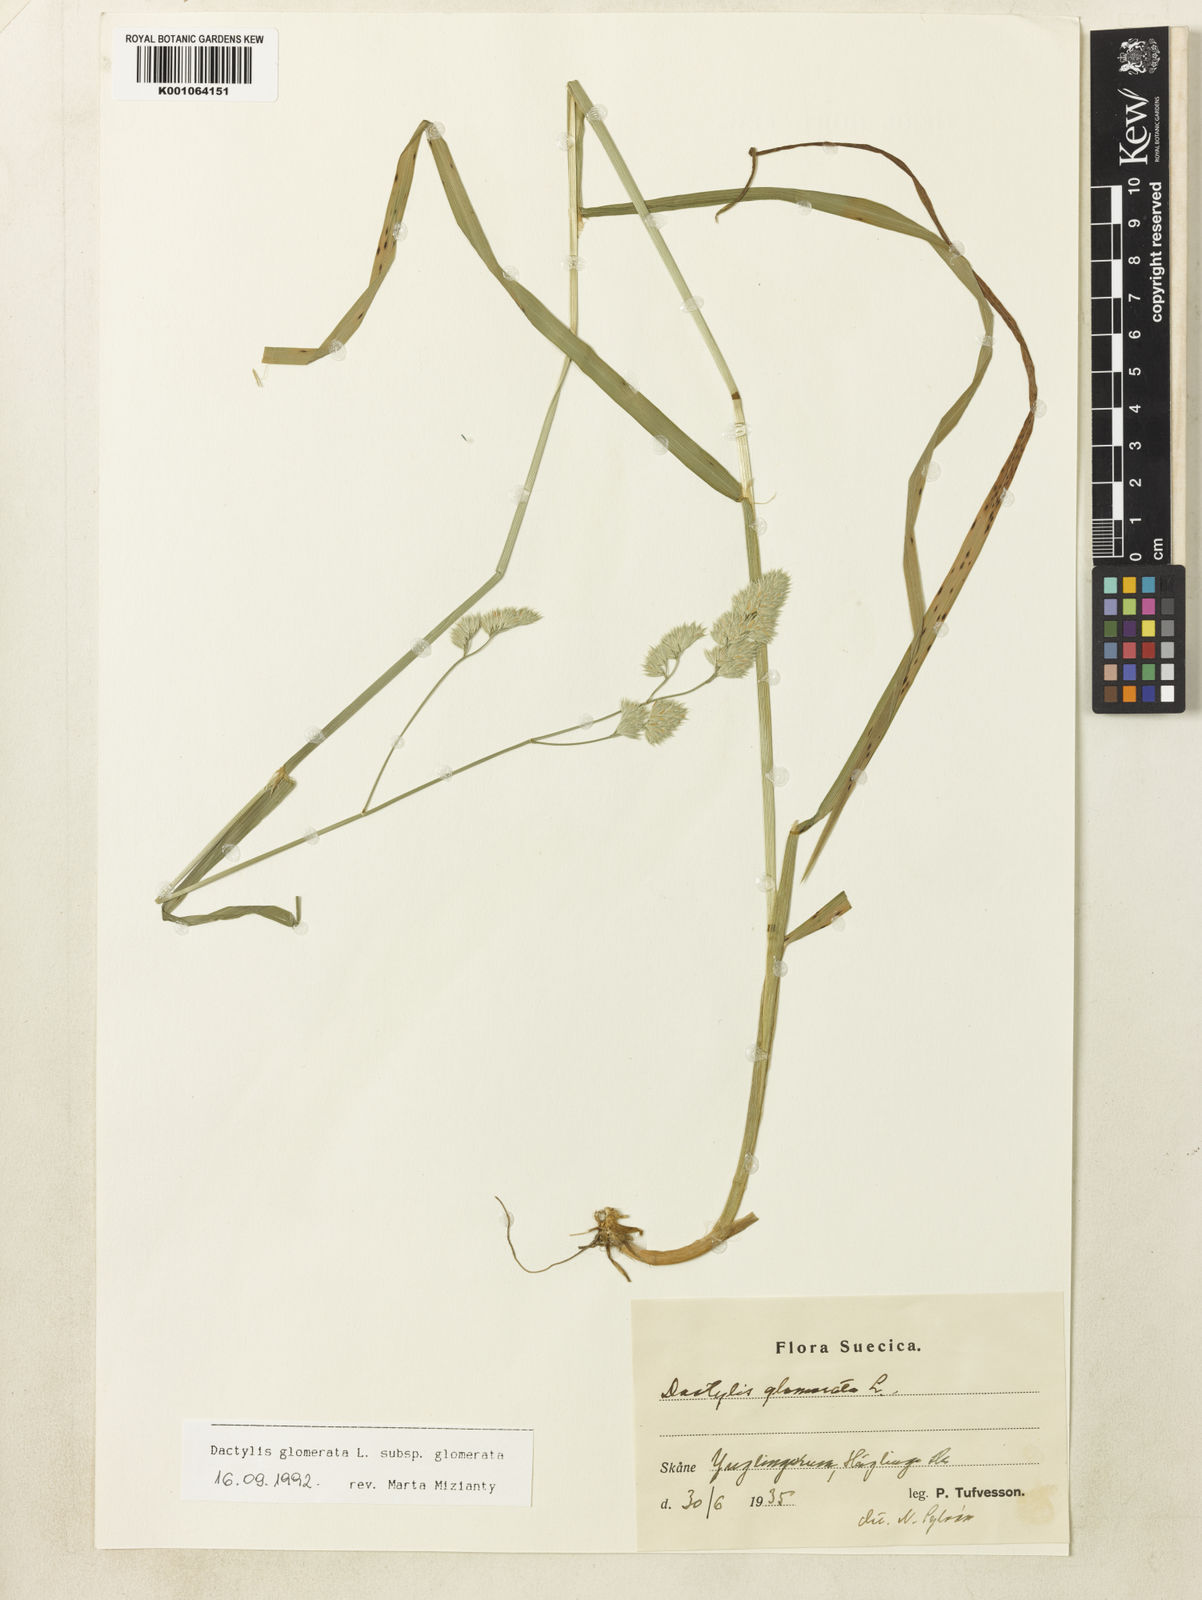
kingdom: Plantae
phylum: Tracheophyta
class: Liliopsida
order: Poales
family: Poaceae
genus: Dactylis
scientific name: Dactylis glomerata
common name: Orchardgrass
